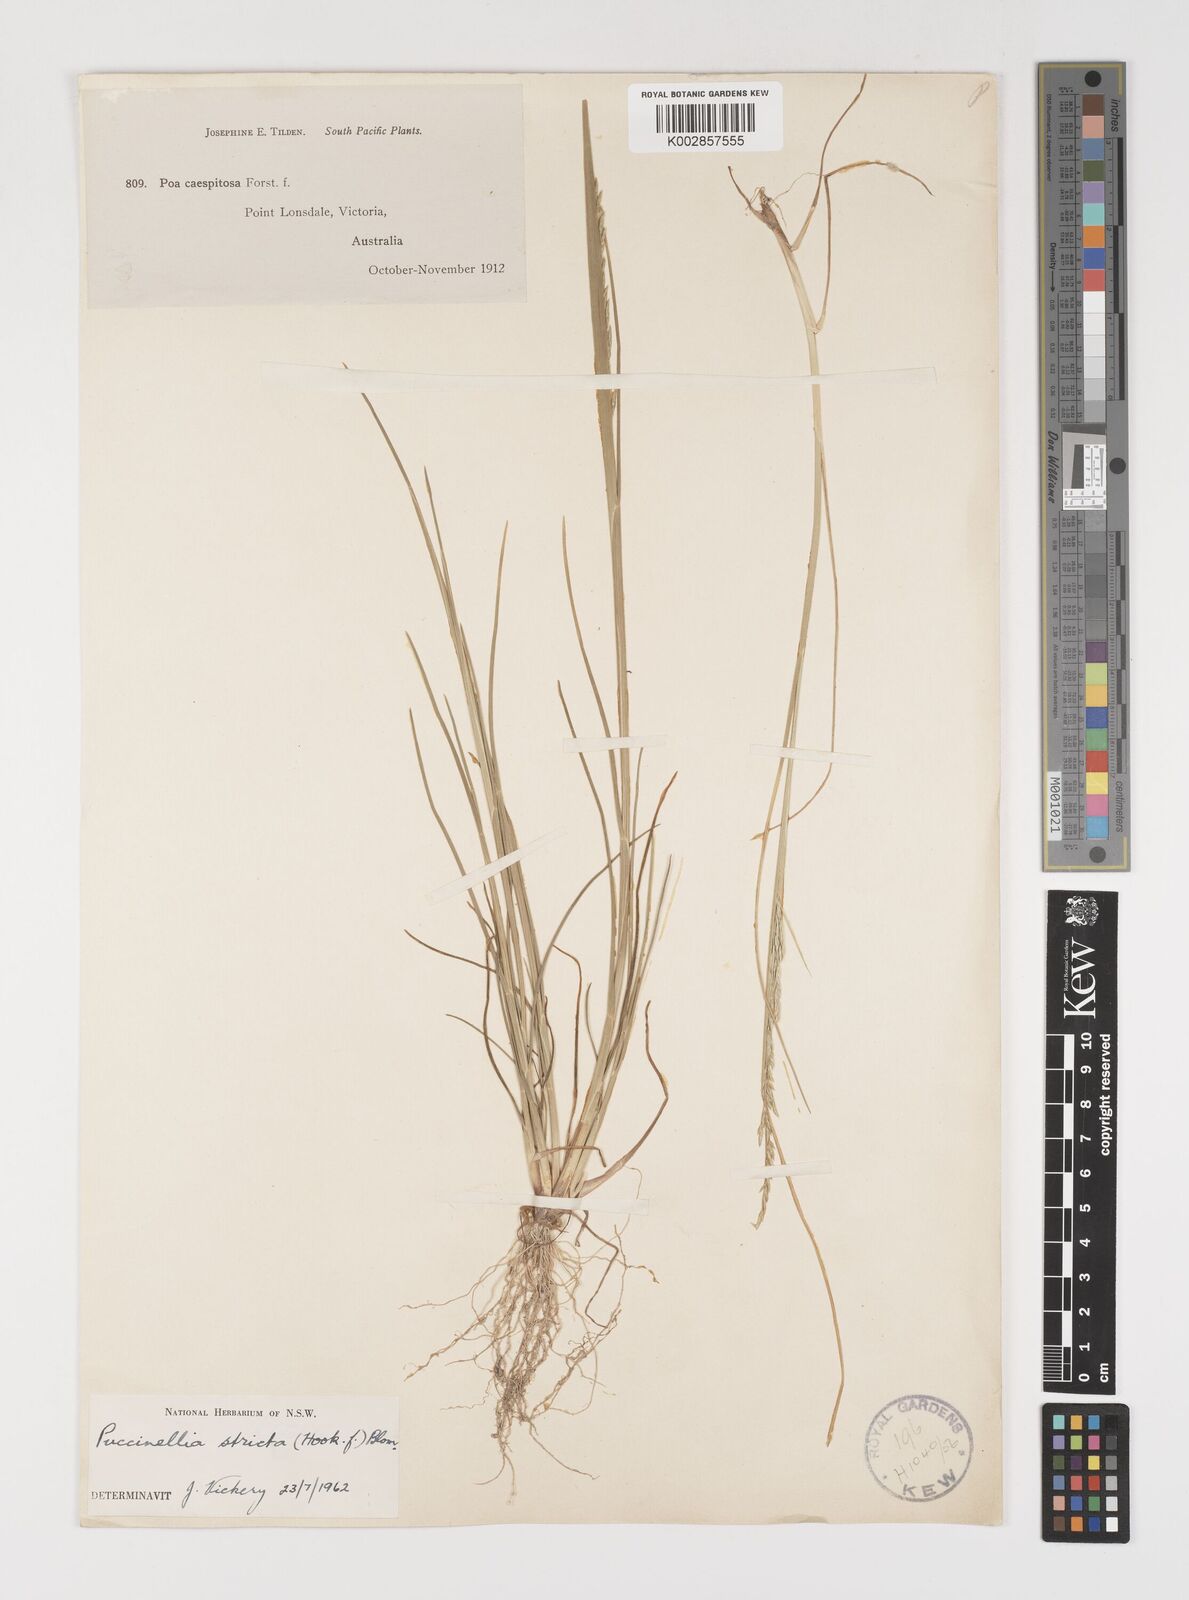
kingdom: Plantae
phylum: Tracheophyta
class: Liliopsida
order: Poales
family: Poaceae
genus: Puccinellia
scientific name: Puccinellia stricta
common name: Australian saltmarsh grass
